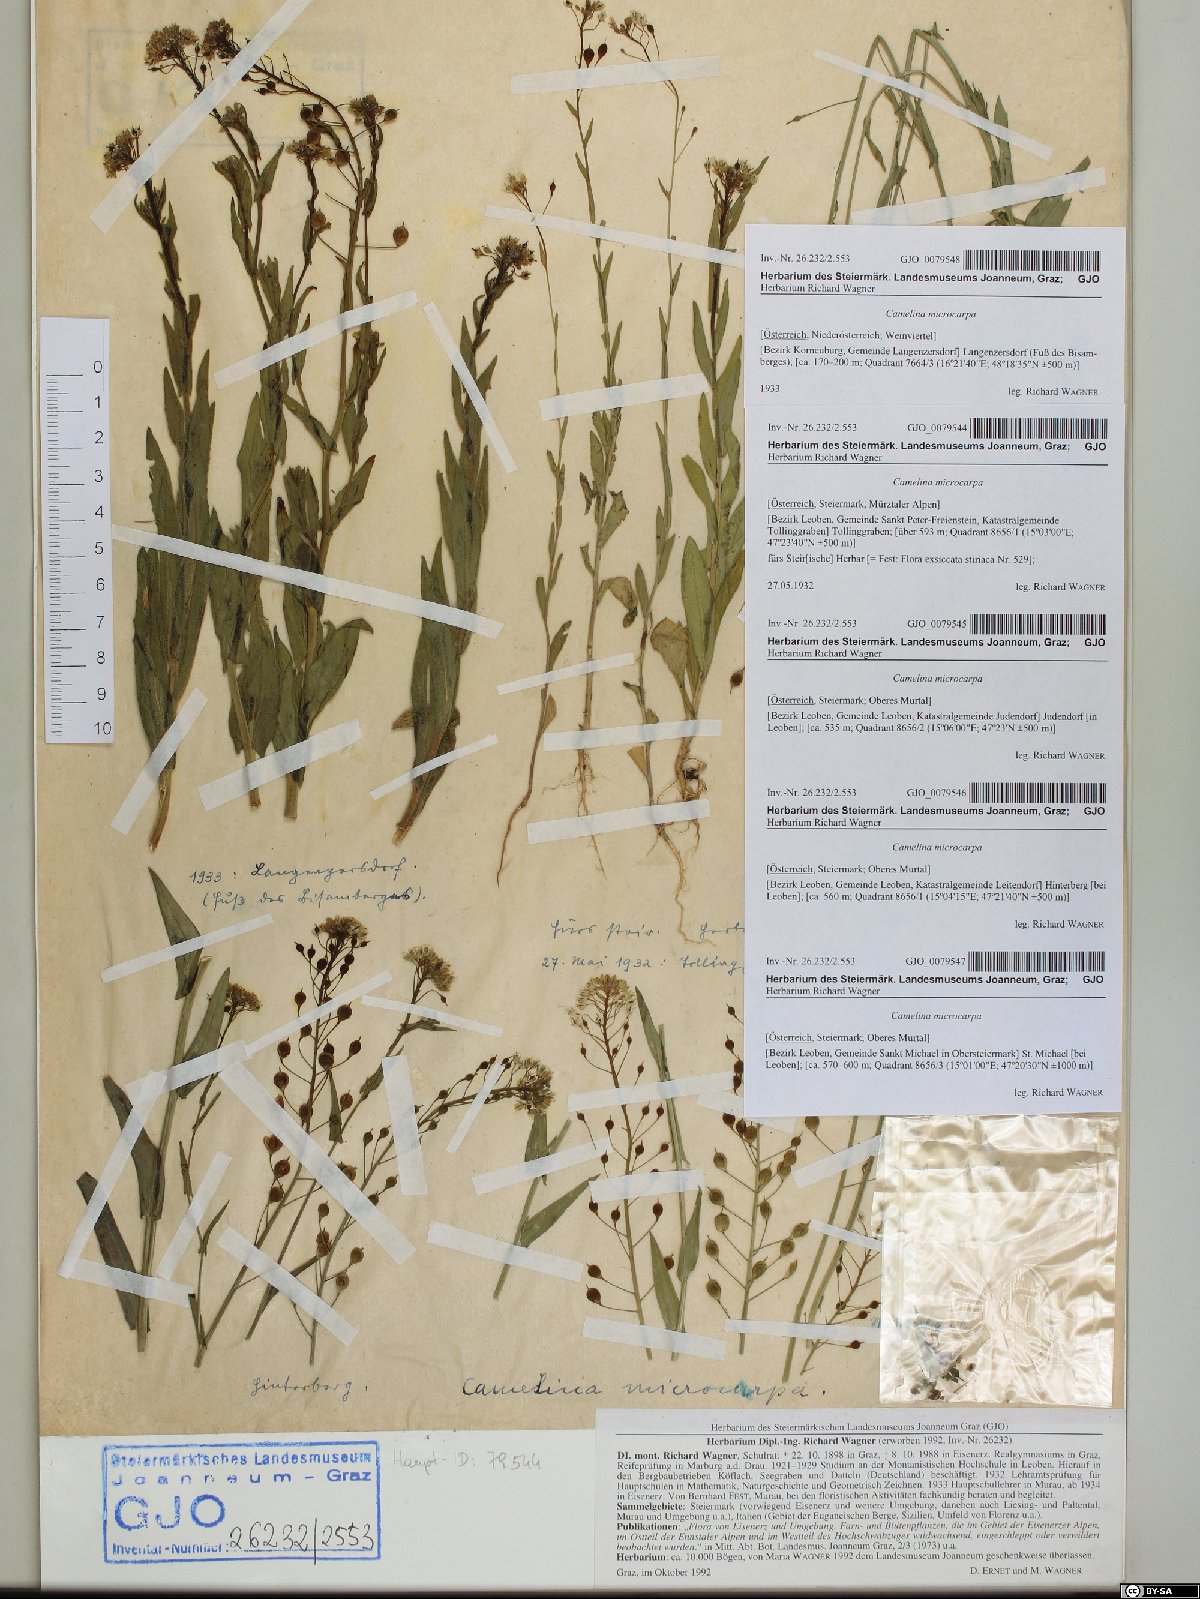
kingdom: Plantae
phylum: Tracheophyta
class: Magnoliopsida
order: Brassicales
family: Brassicaceae
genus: Camelina
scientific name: Camelina microcarpa
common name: Lesser gold-of-pleasure
